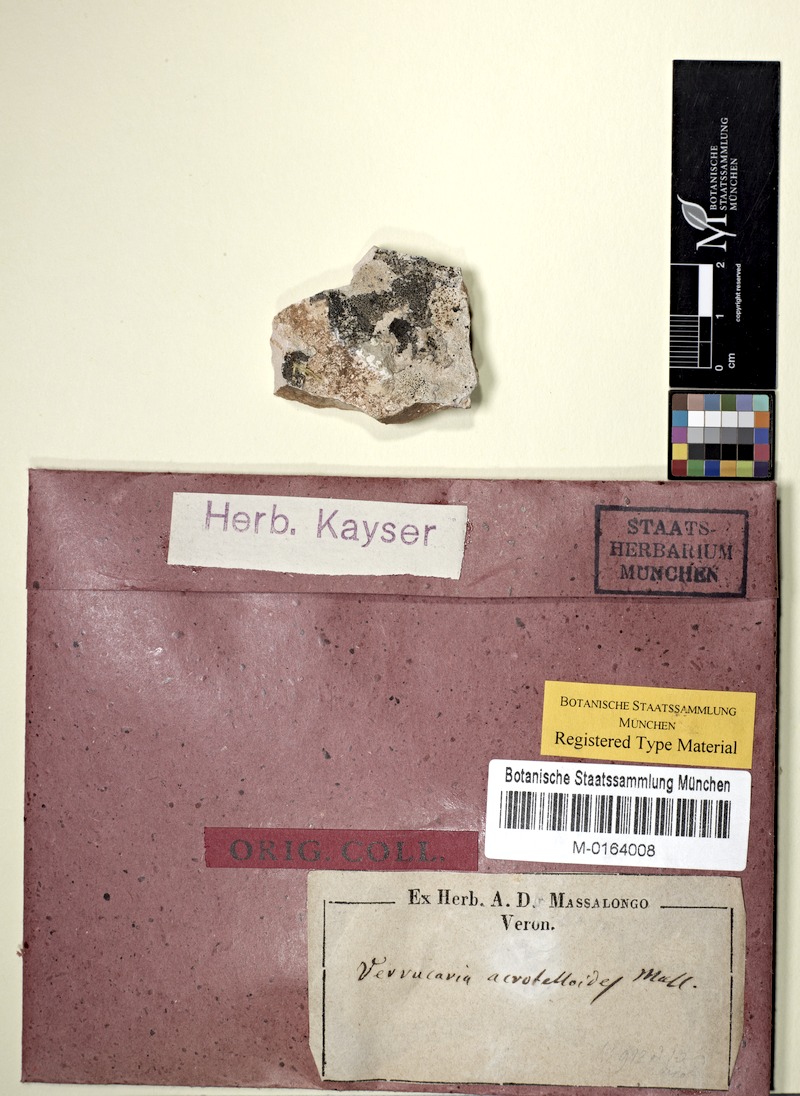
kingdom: Fungi
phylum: Ascomycota
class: Eurotiomycetes
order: Verrucariales
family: Verrucariaceae
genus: Verrucaria
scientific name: Verrucaria acrotelloides
